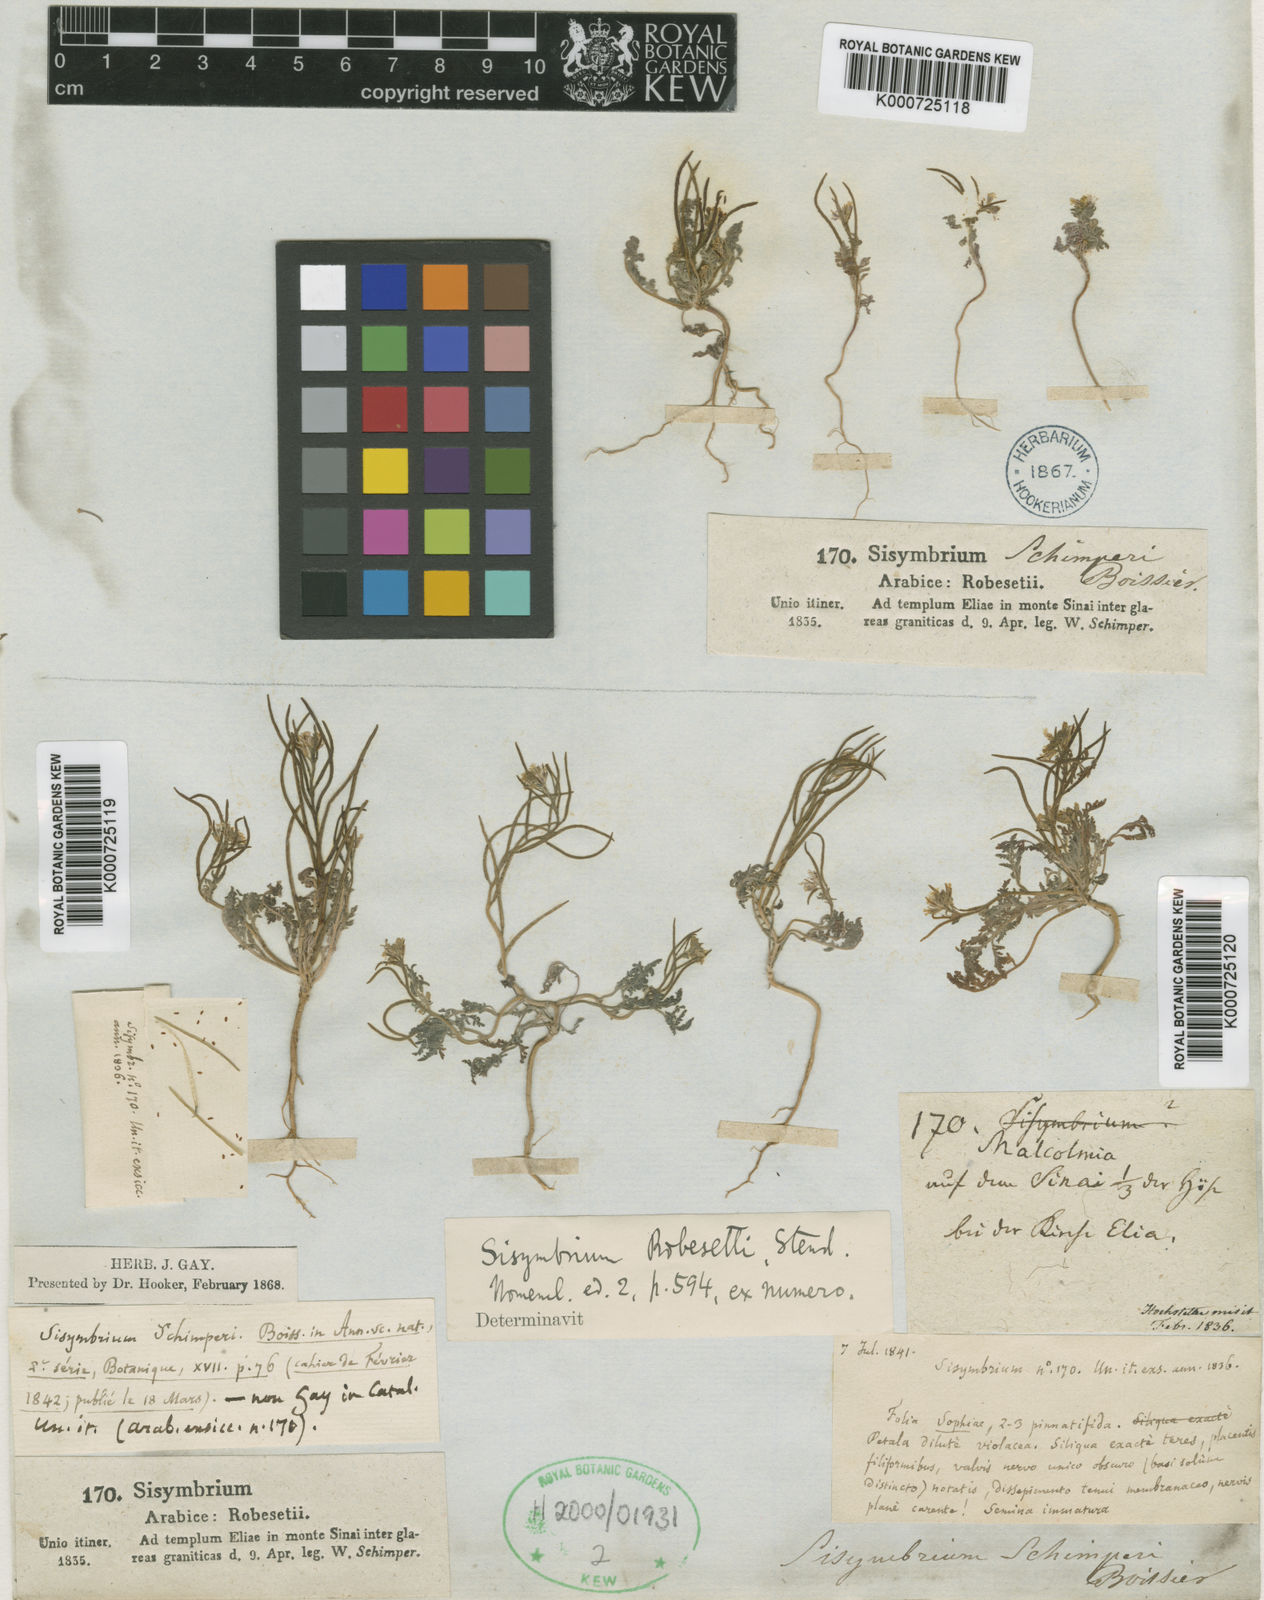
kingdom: Plantae
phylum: Tracheophyta
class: Magnoliopsida
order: Brassicales
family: Brassicaceae
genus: Robeschia
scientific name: Robeschia schimperi
